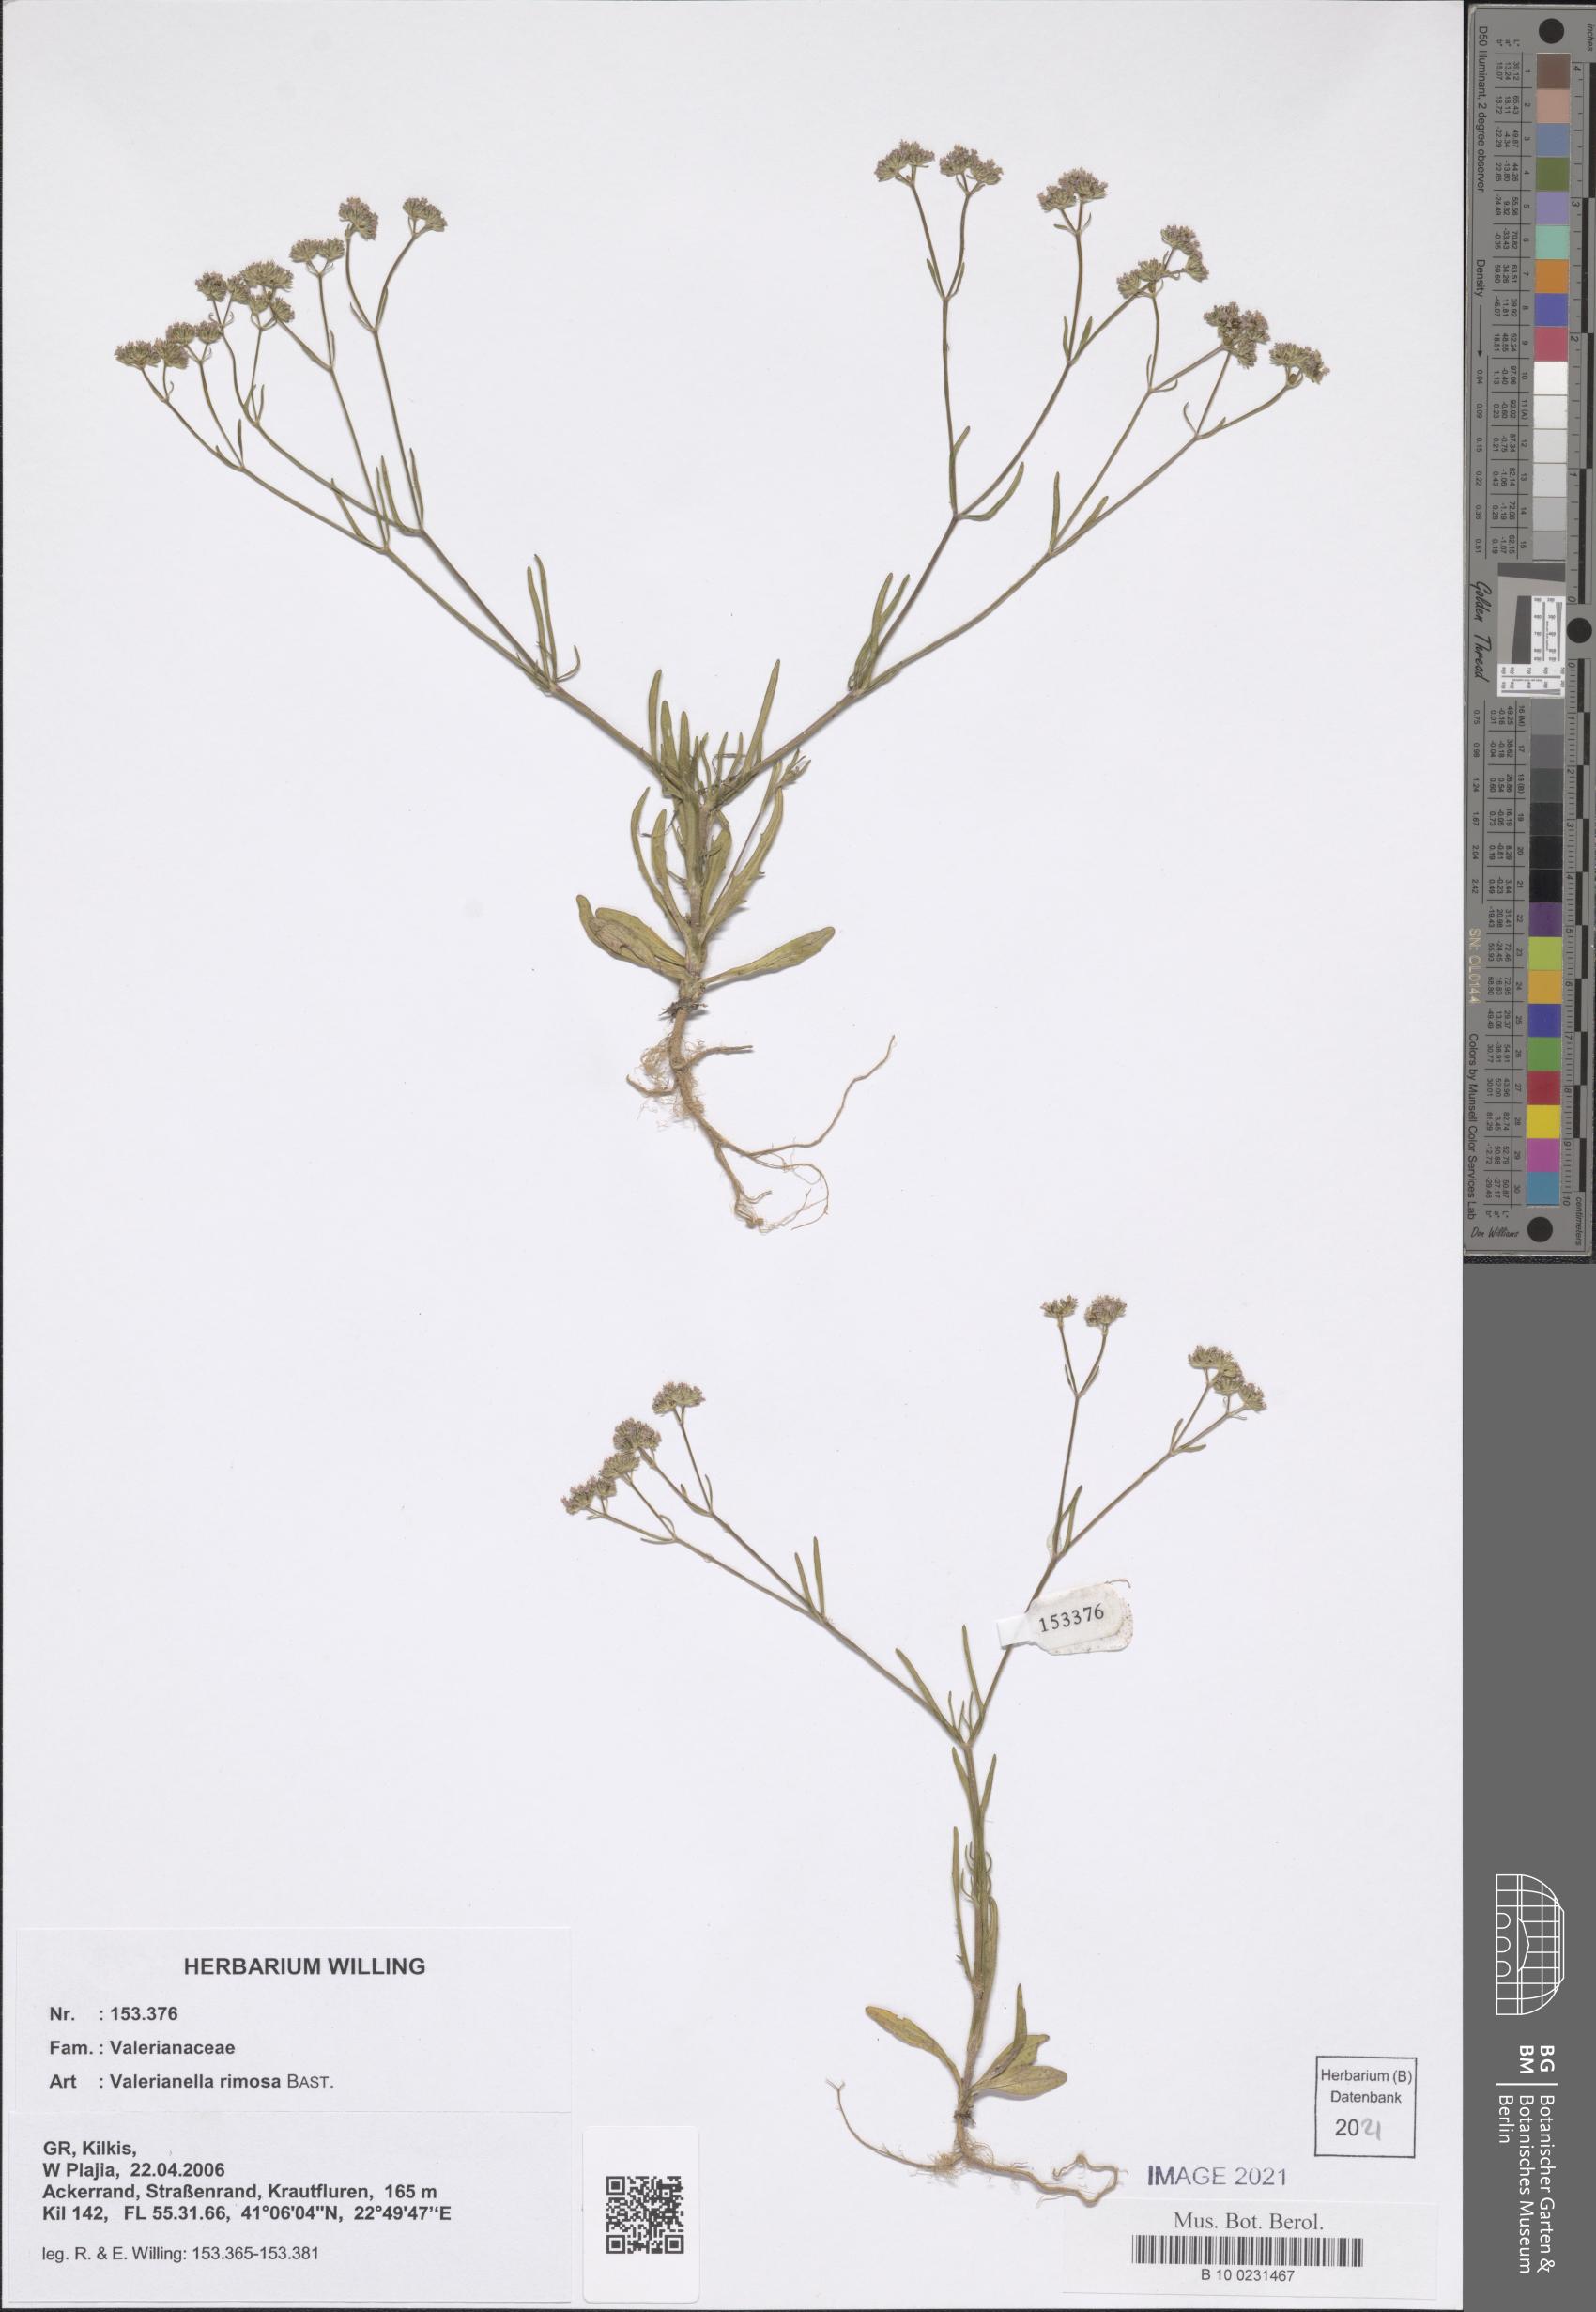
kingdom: Plantae
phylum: Tracheophyta
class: Magnoliopsida
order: Dipsacales
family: Caprifoliaceae
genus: Valerianella
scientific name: Valerianella rimosa
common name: Broad-fruited cornsalad
